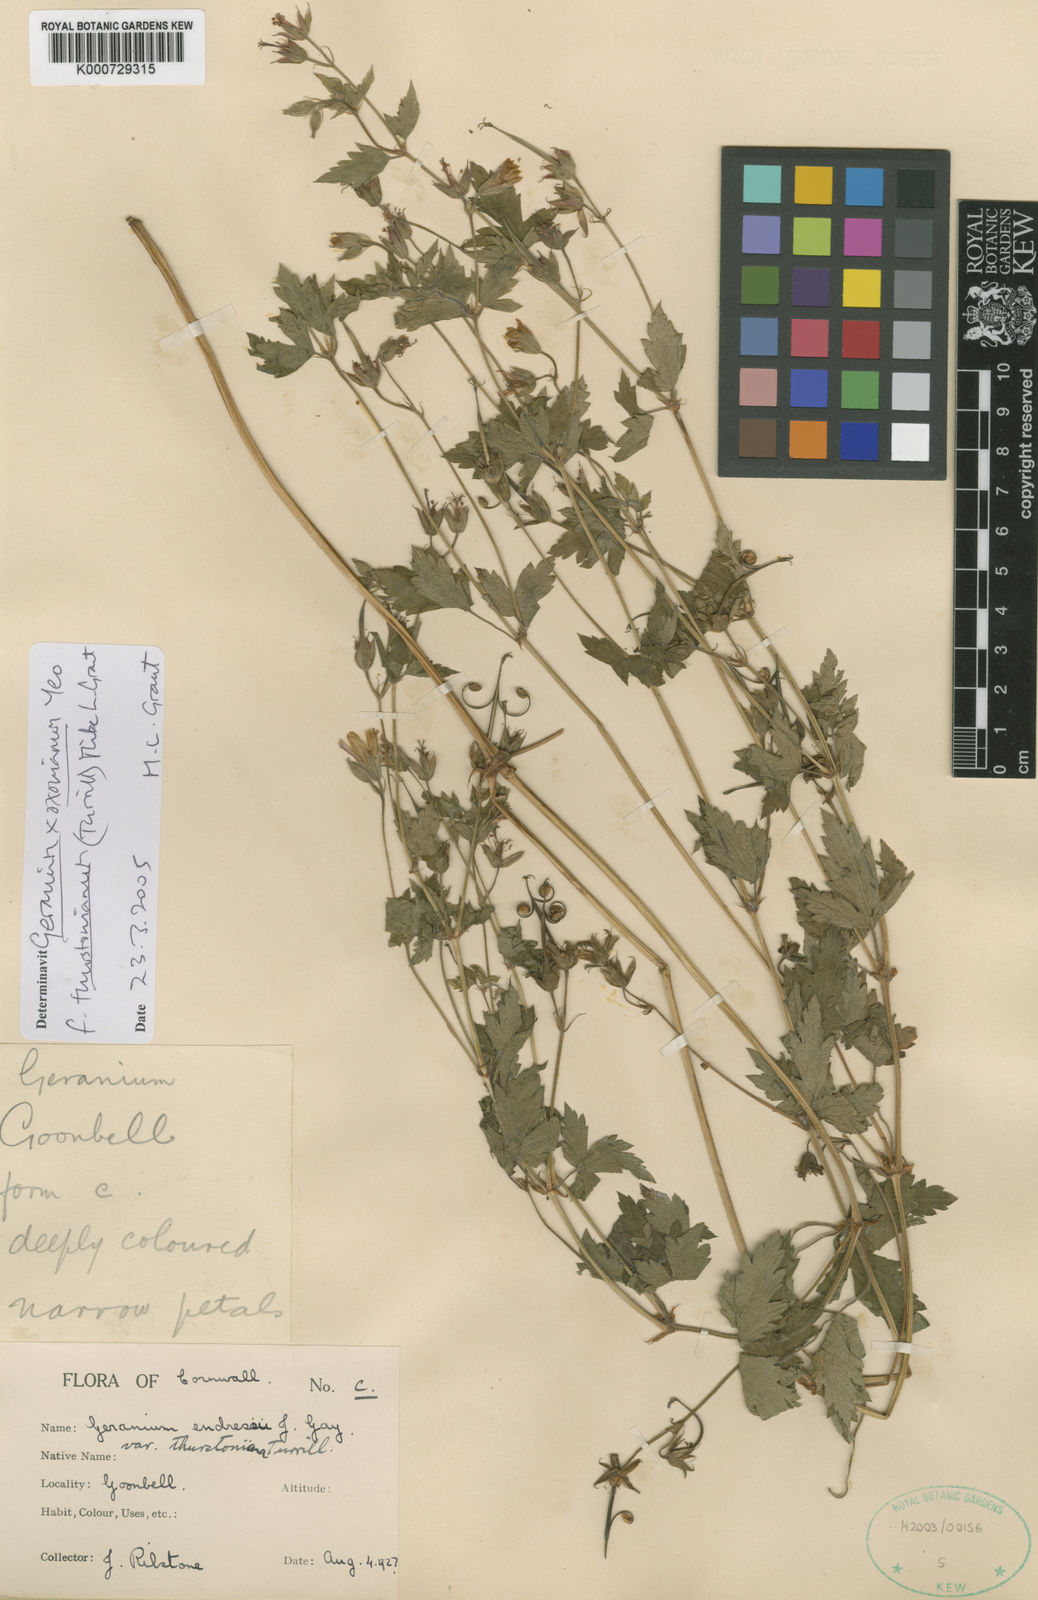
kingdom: Plantae
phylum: Tracheophyta
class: Magnoliopsida
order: Geraniales
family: Geraniaceae
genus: Geranium
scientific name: Geranium oxonianum
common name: Druce's crane's-bill
